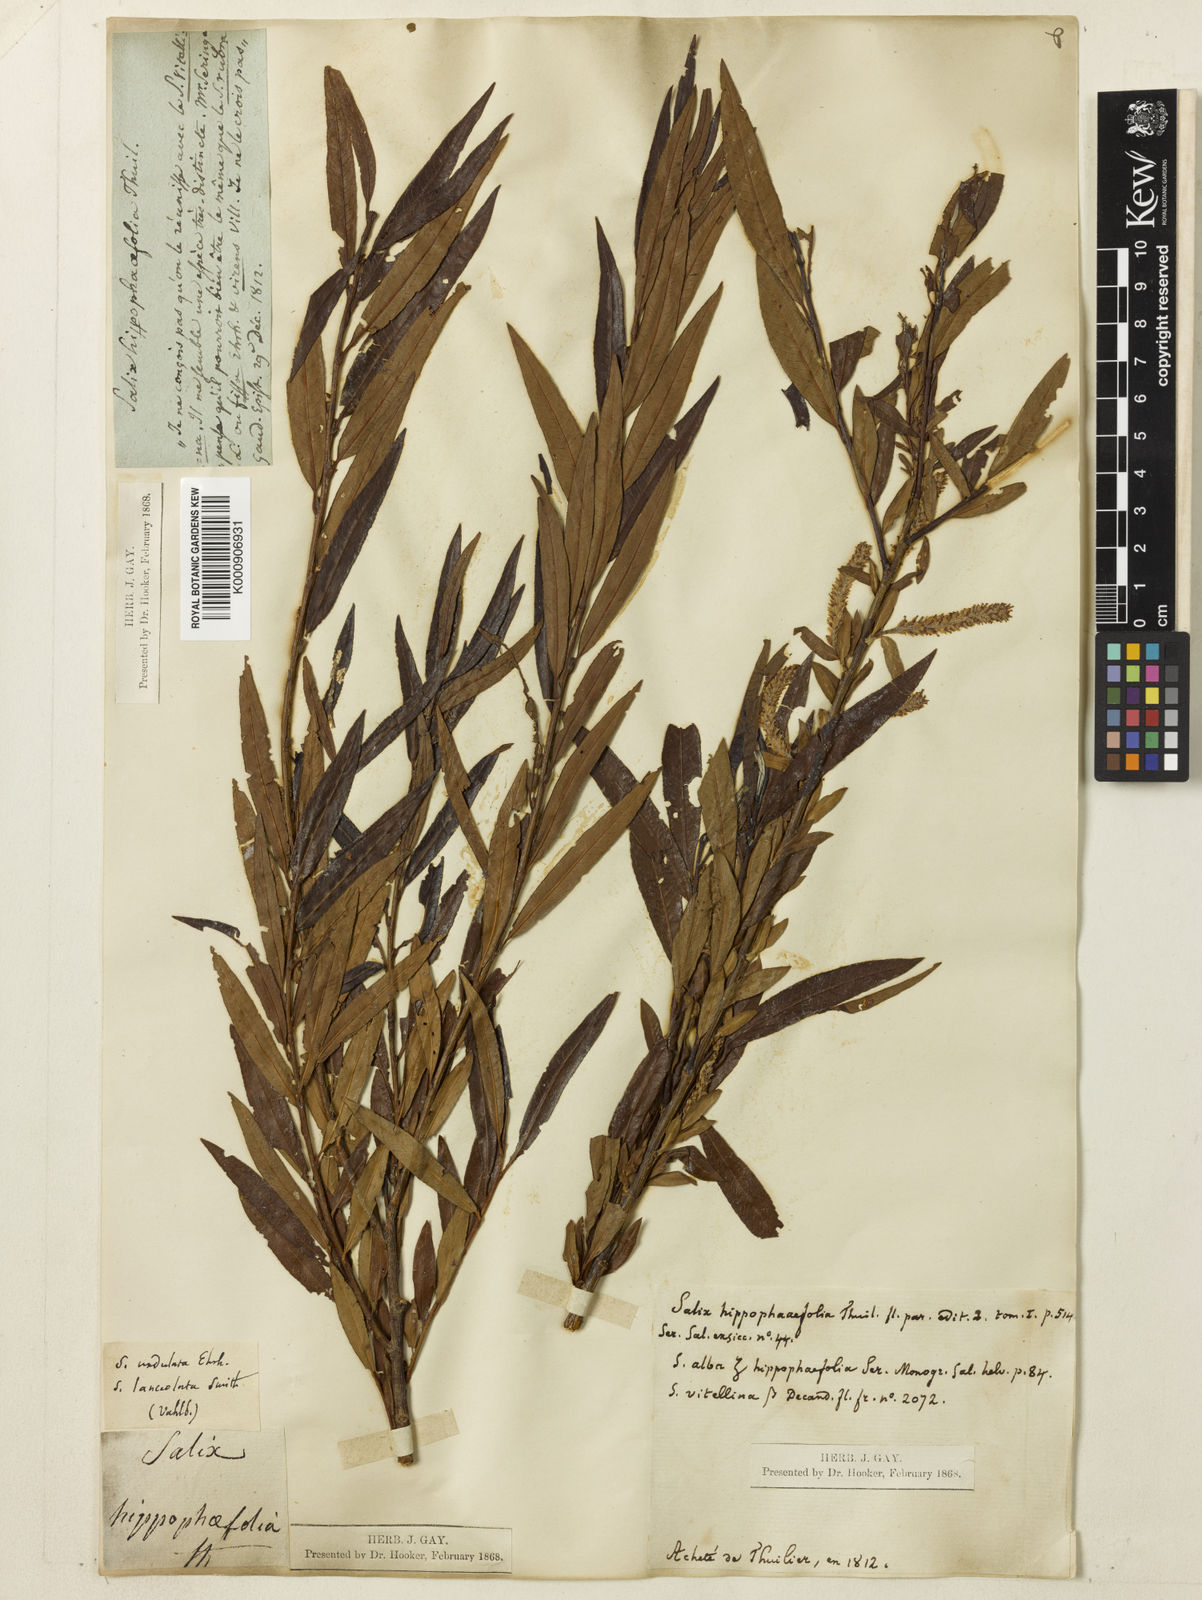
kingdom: Plantae
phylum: Tracheophyta
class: Magnoliopsida
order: Malpighiales
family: Salicaceae
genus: Salix
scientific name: Salix alba
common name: White willow
